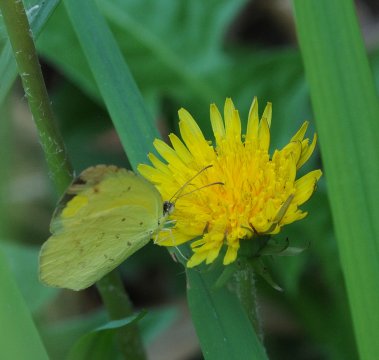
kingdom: Animalia
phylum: Arthropoda
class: Insecta
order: Lepidoptera
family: Pieridae
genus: Eurema
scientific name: Eurema desjardinsii
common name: Angled Grass Yellow
